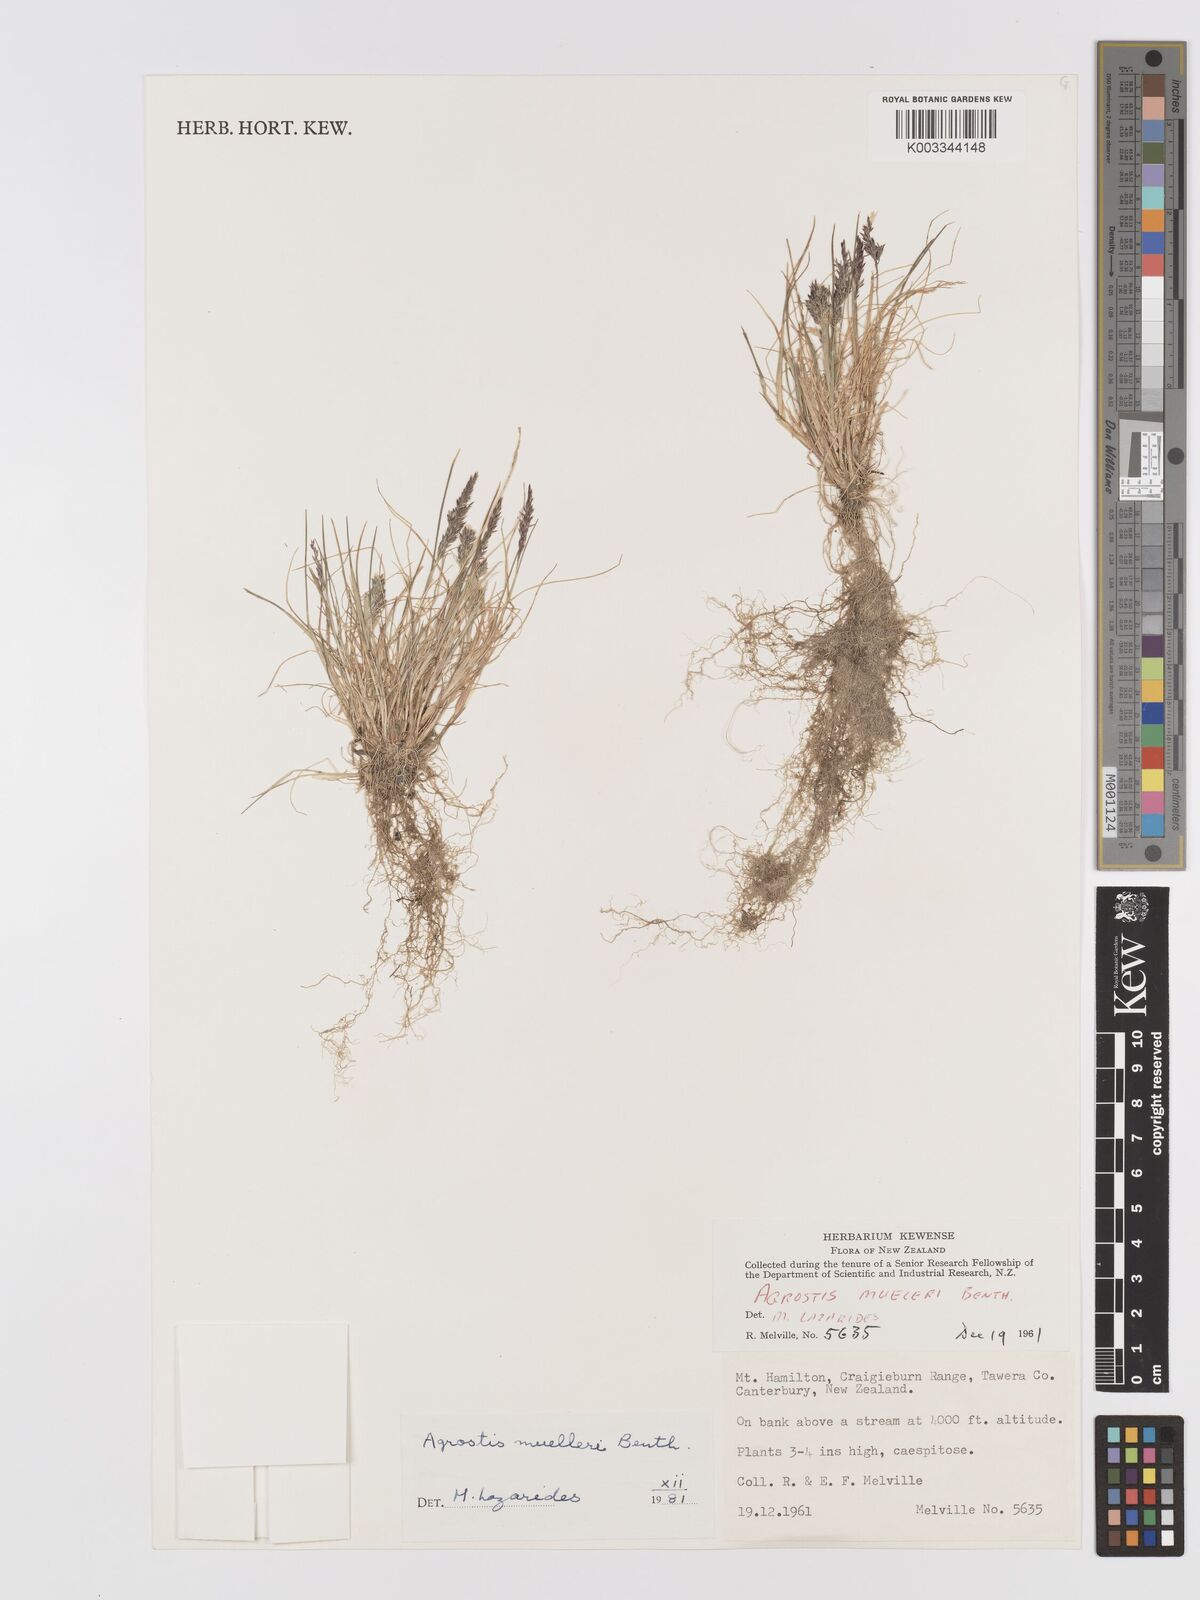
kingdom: Plantae
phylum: Tracheophyta
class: Liliopsida
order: Poales
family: Poaceae
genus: Agrostis
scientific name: Agrostis muelleriana
